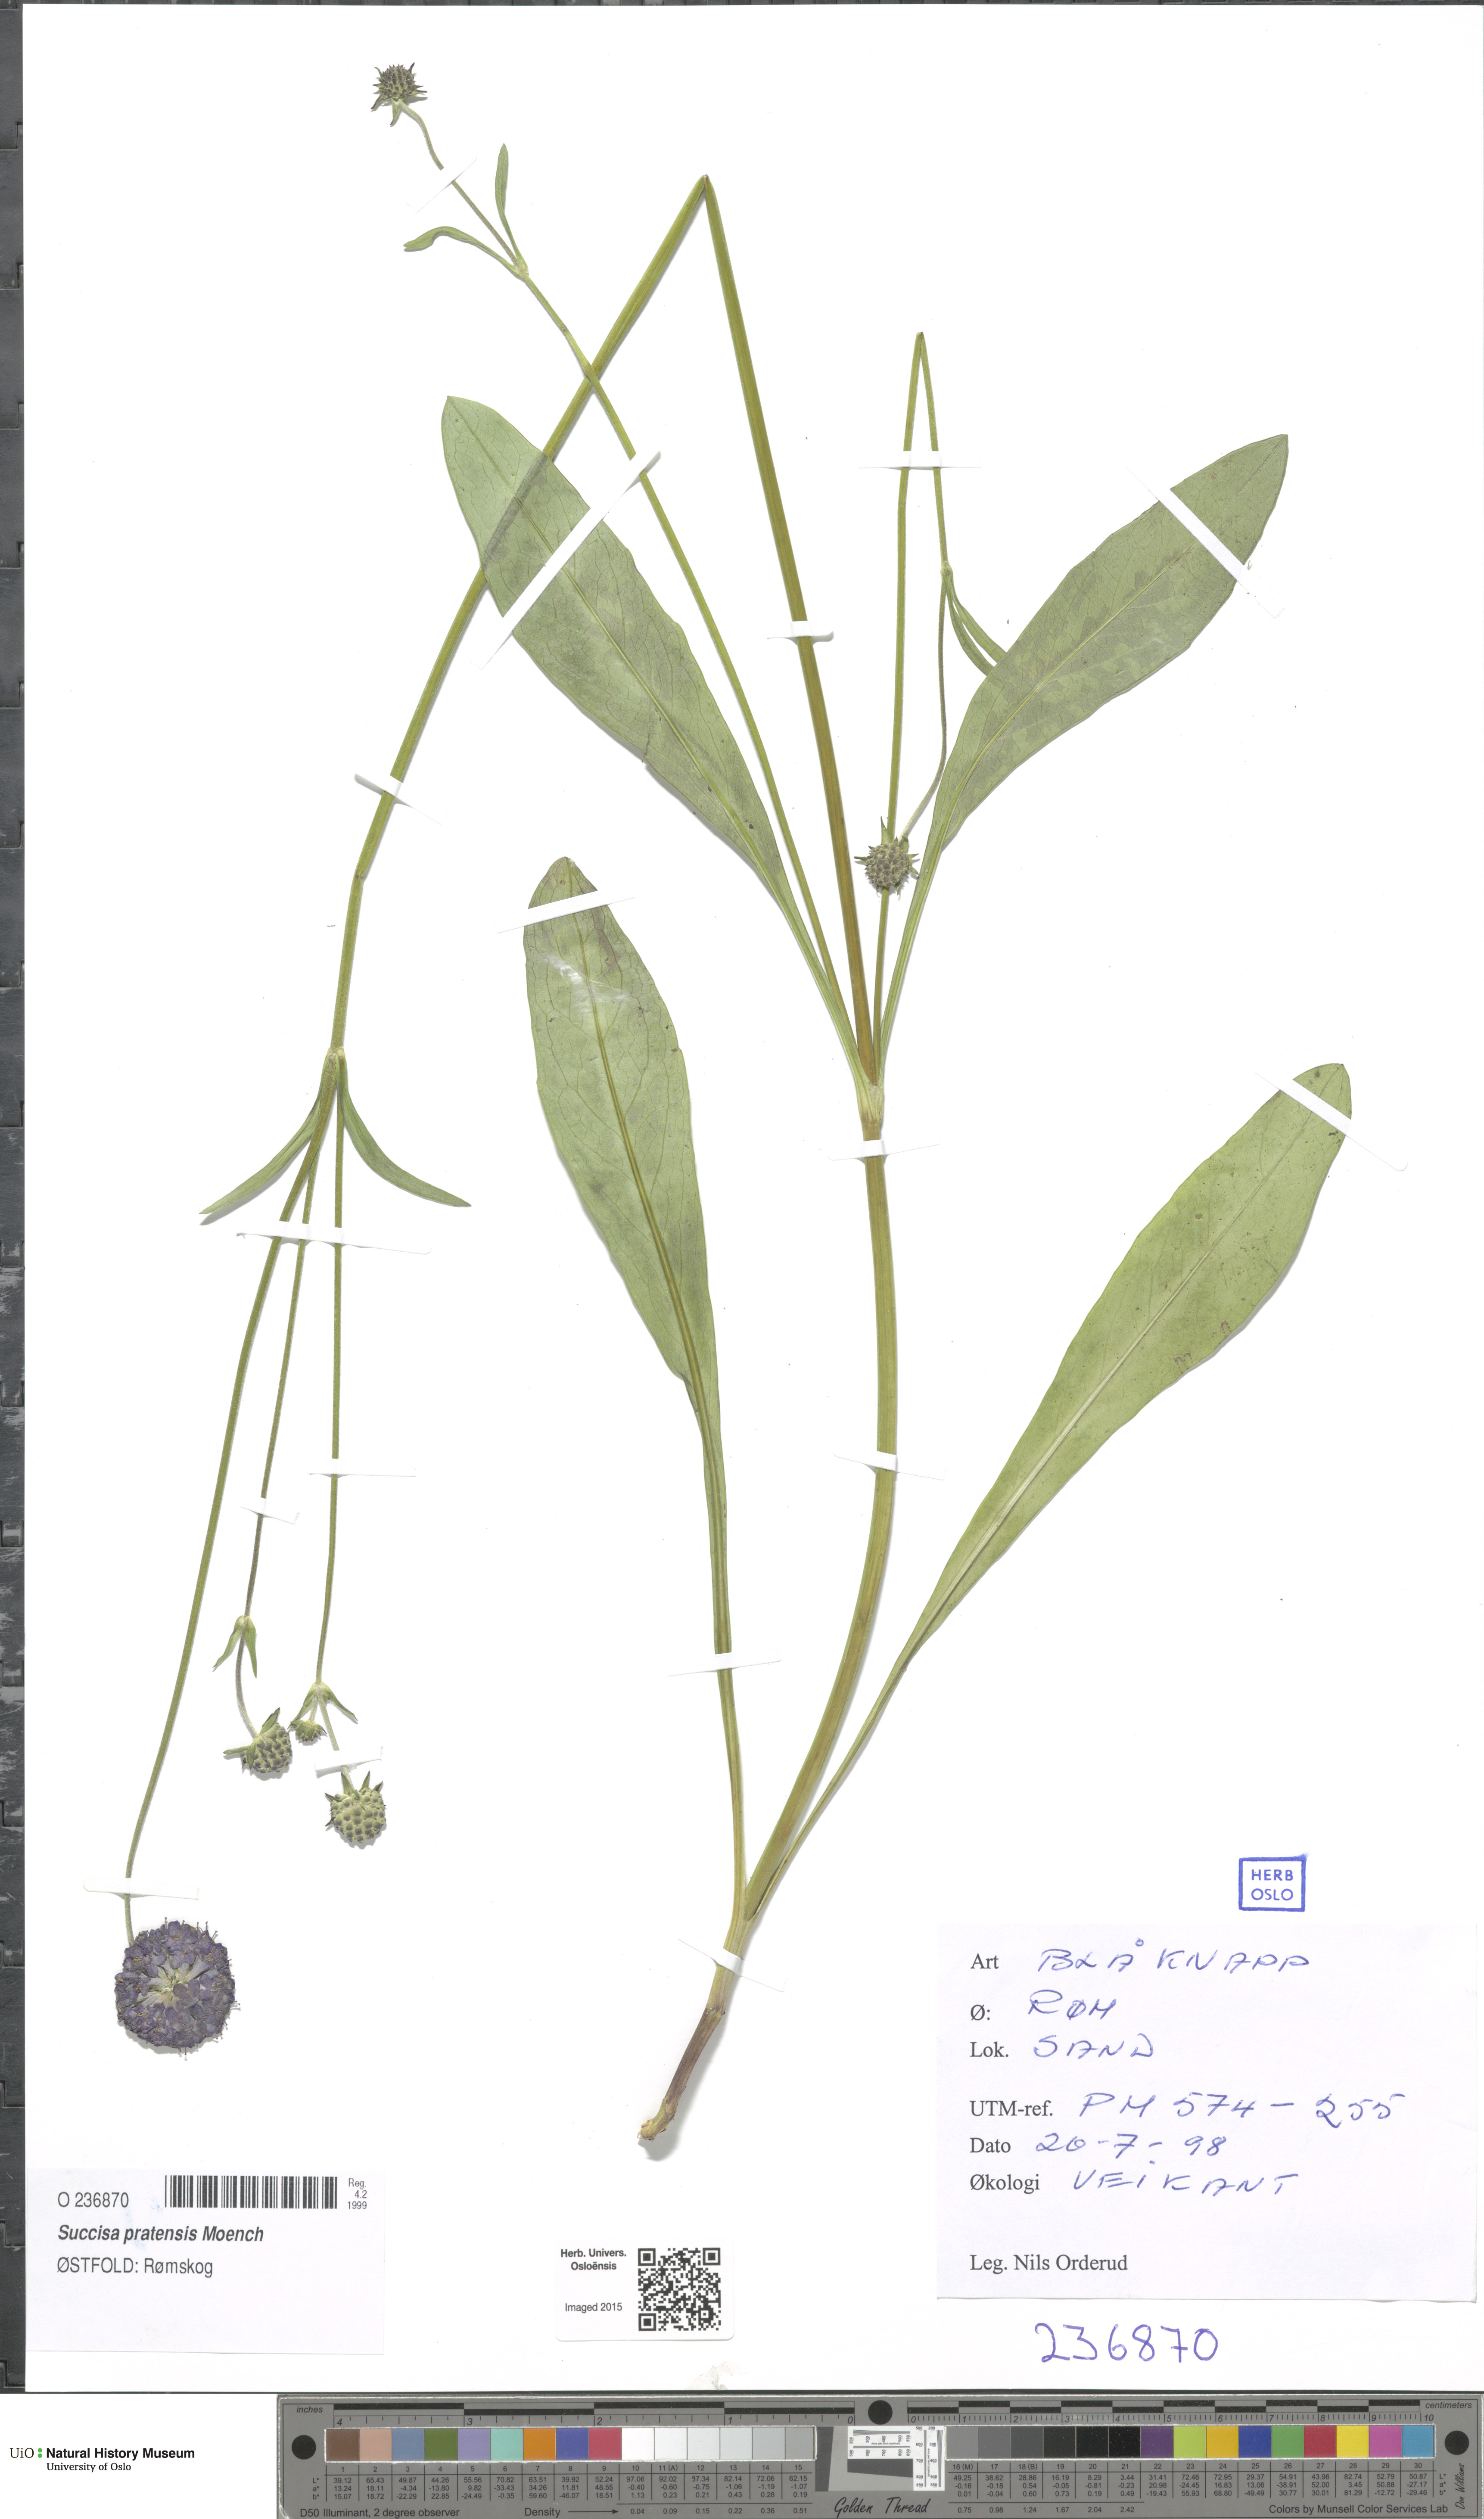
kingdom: Plantae
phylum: Tracheophyta
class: Magnoliopsida
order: Dipsacales
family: Caprifoliaceae
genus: Succisa
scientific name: Succisa pratensis
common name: Devil's-bit
